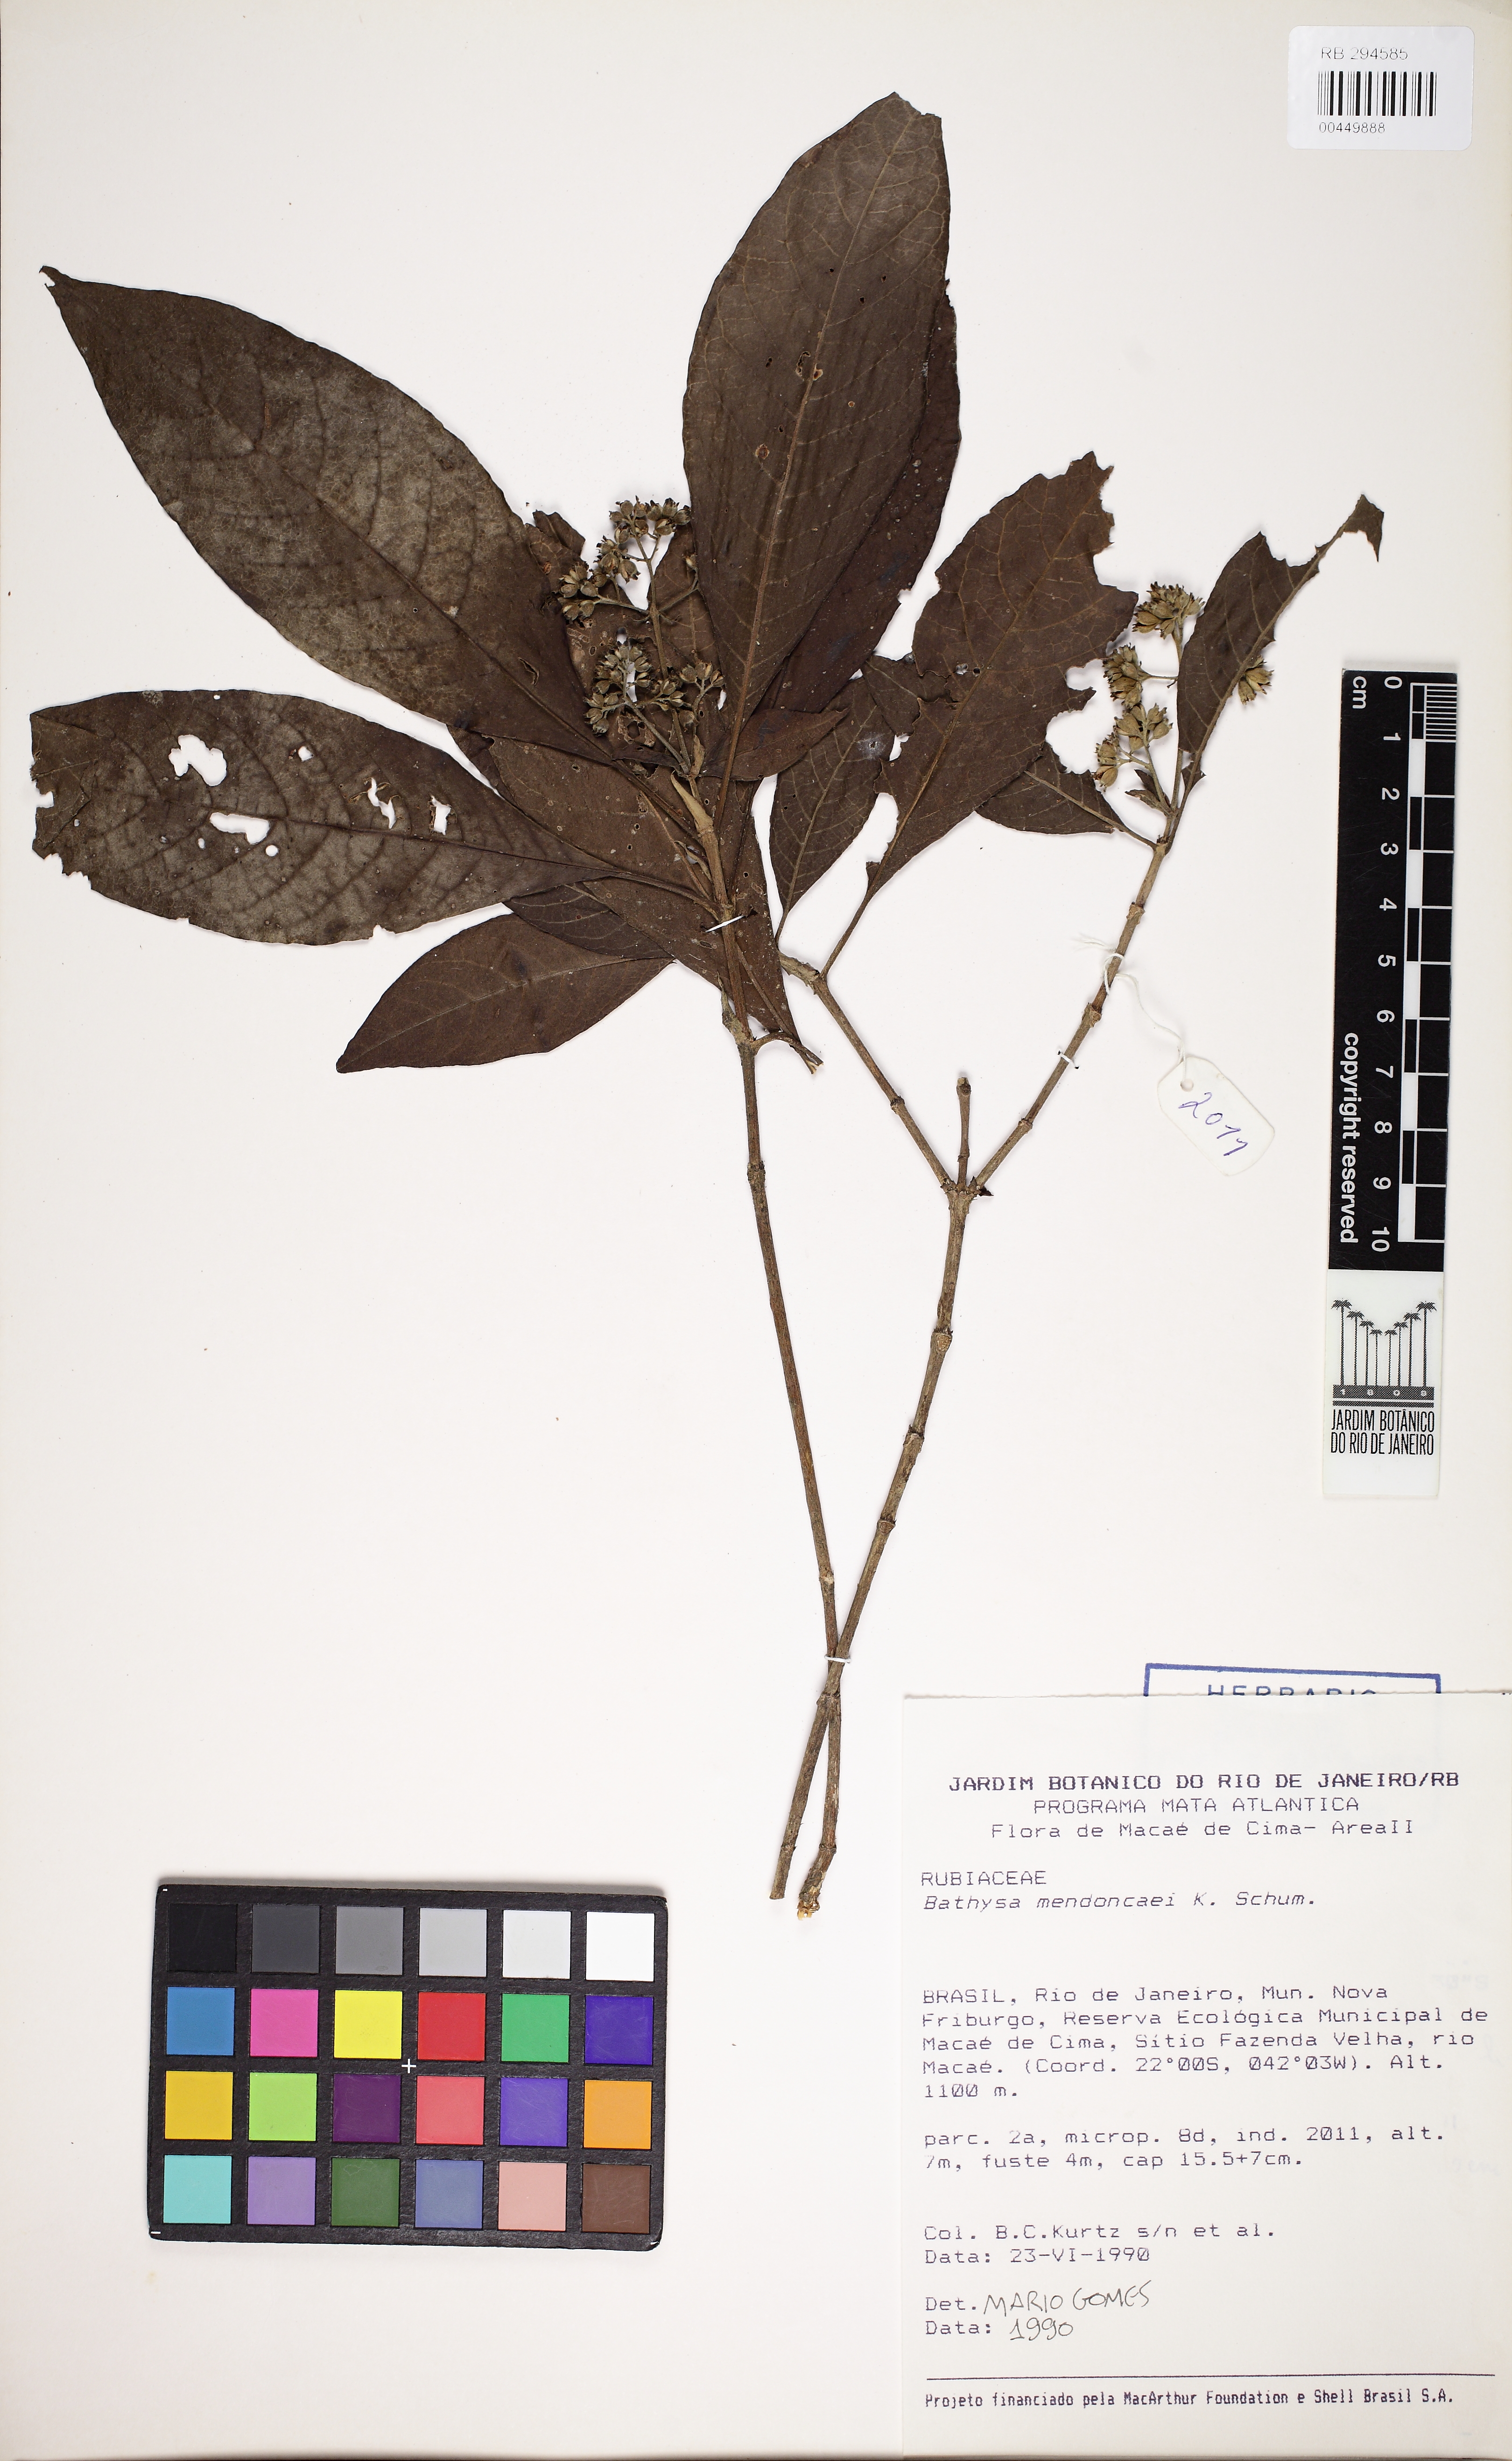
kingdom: Plantae
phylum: Tracheophyta
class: Magnoliopsida
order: Gentianales
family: Rubiaceae
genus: Bathysa
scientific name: Bathysa mendoncaei
